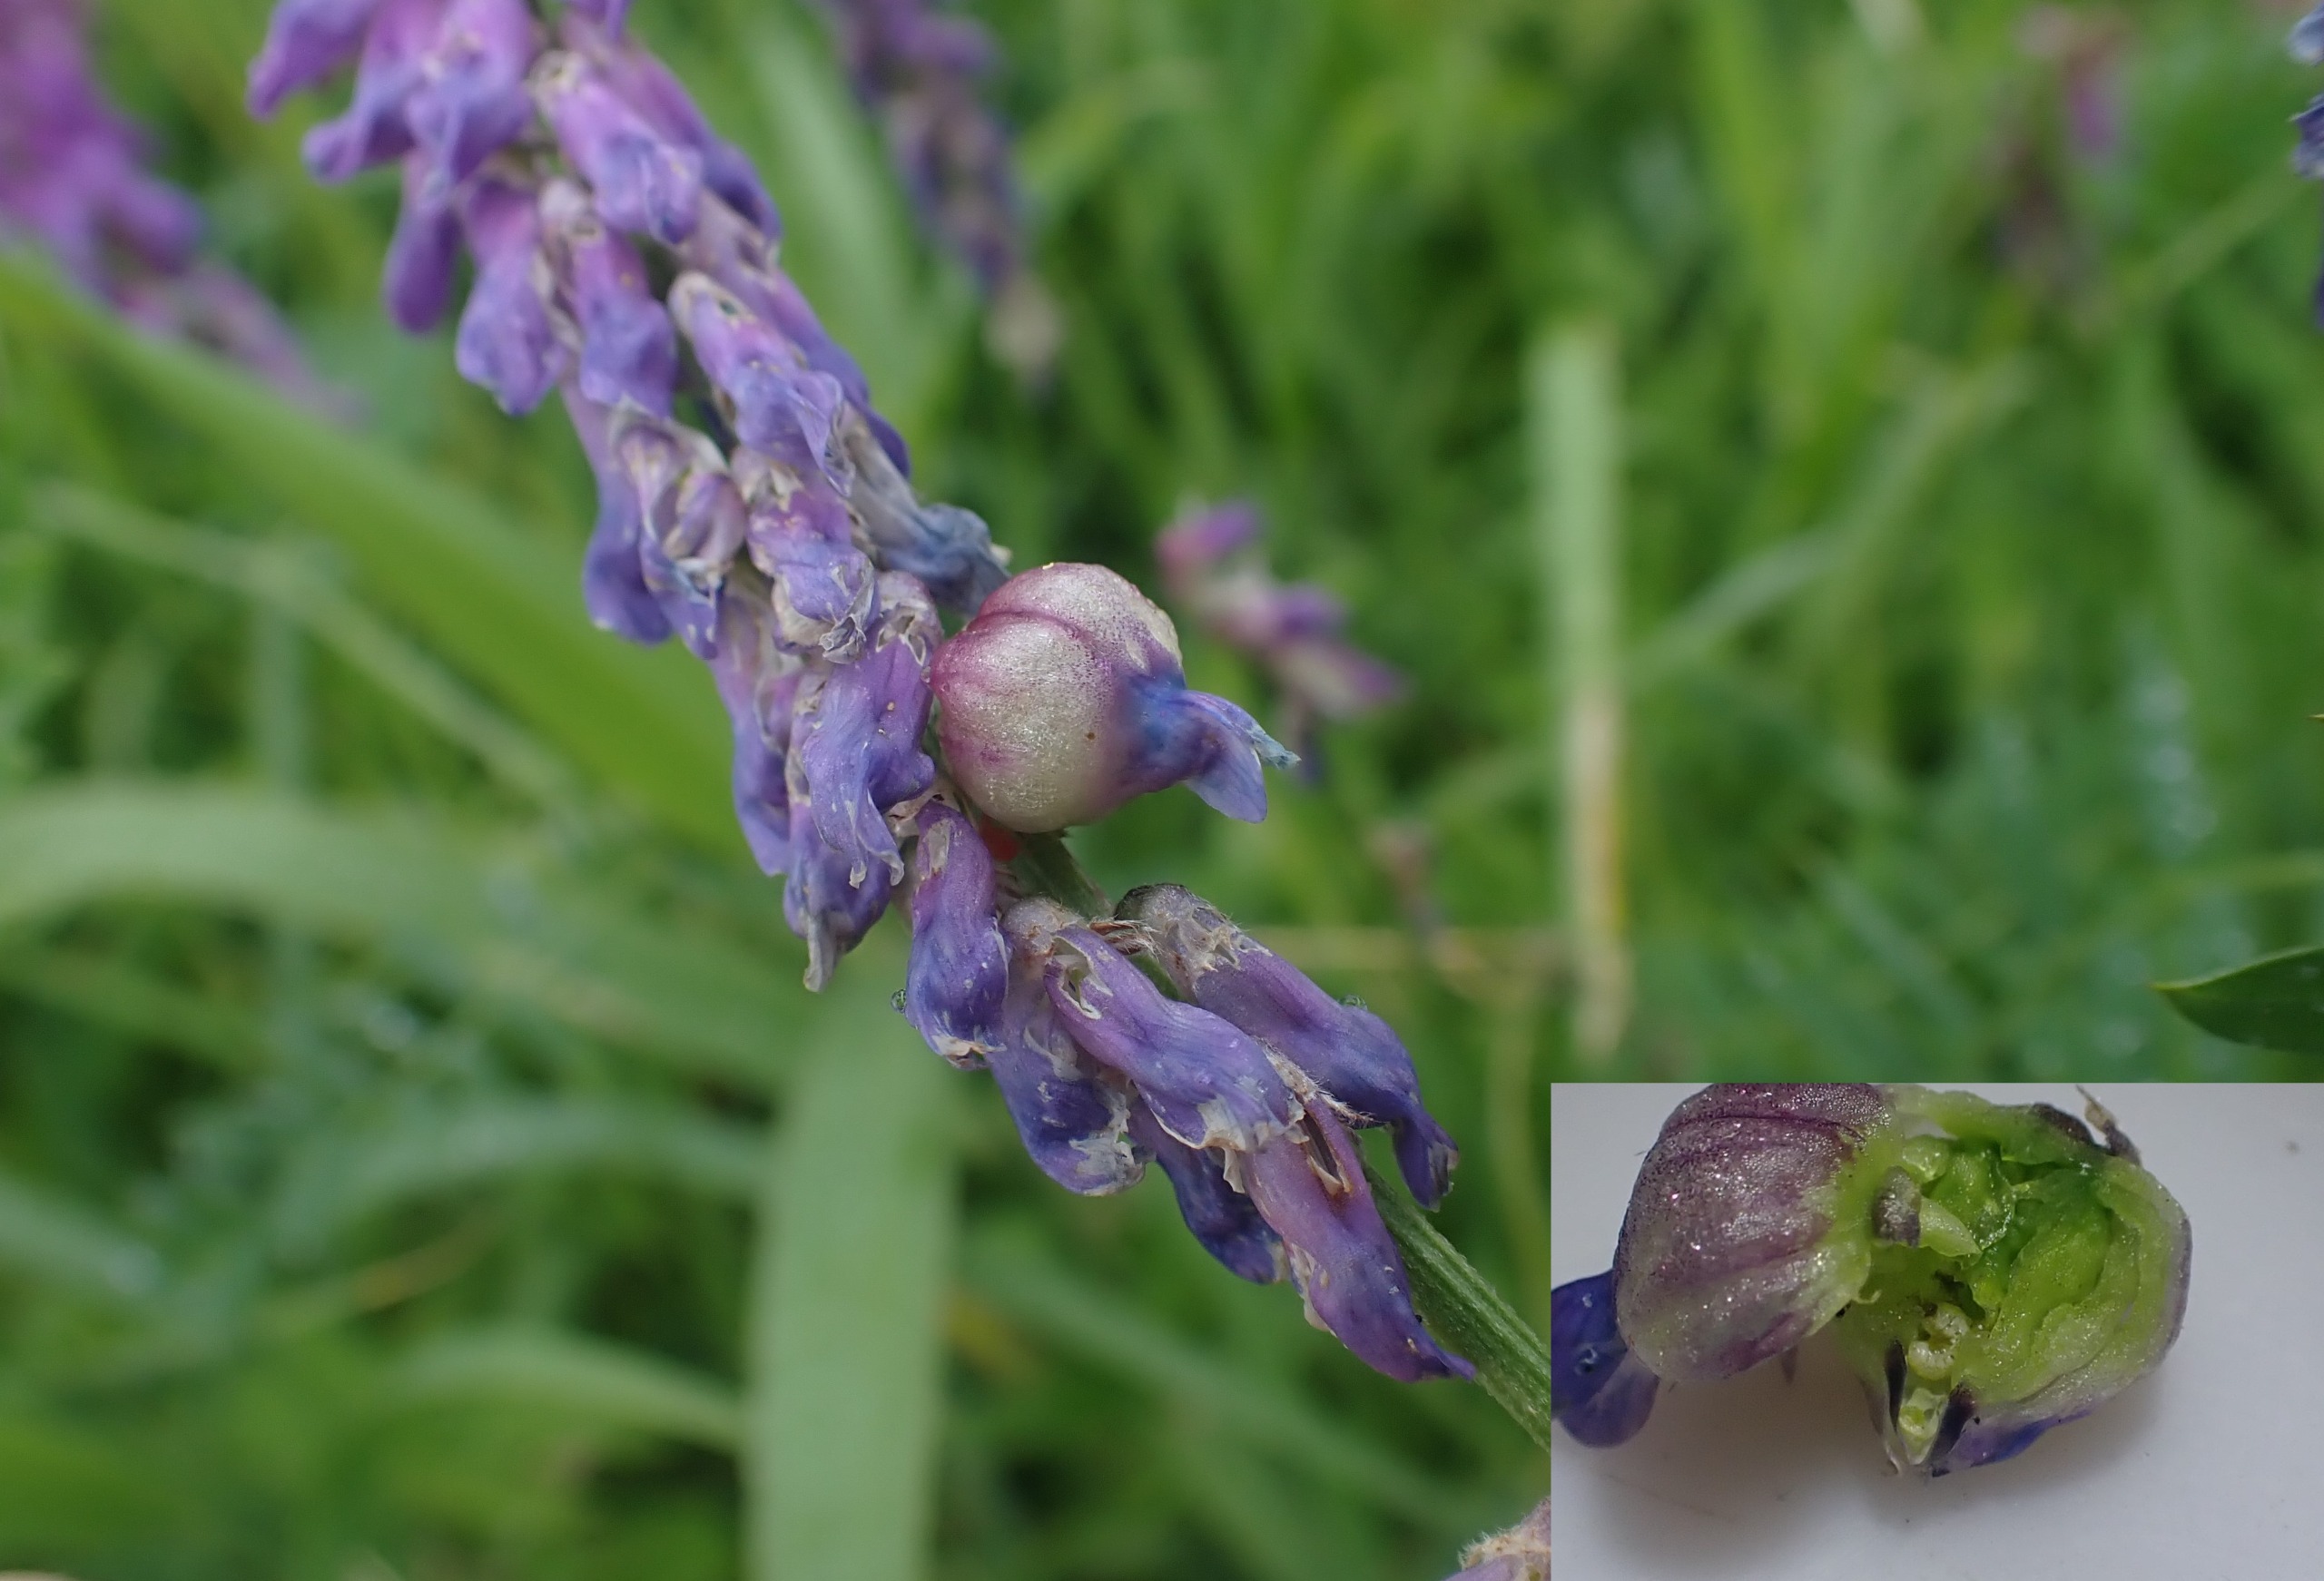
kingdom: Animalia
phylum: Arthropoda
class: Insecta
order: Diptera
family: Cecidomyiidae
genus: Contarinia
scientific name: Contarinia craccae
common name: Vikkeblomstgalmyg
